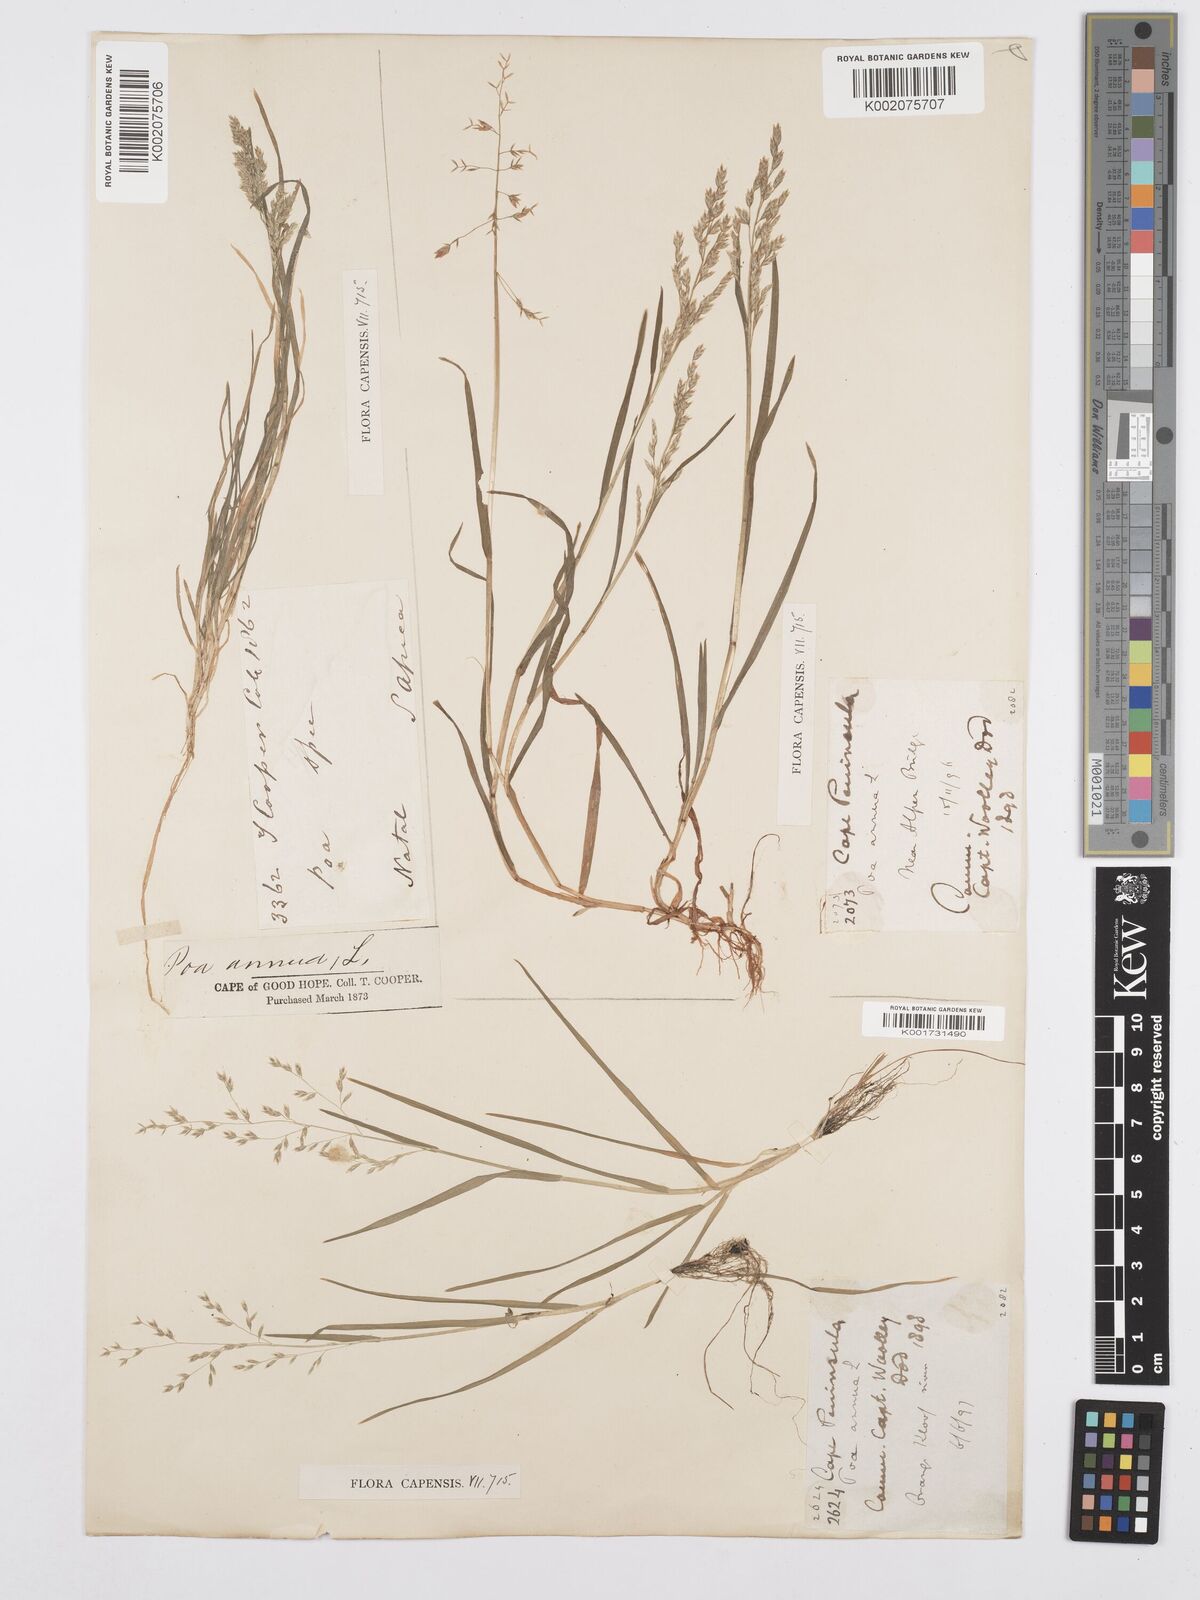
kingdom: Plantae
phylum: Tracheophyta
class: Liliopsida
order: Poales
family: Poaceae
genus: Poa
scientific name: Poa annua
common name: Annual bluegrass
